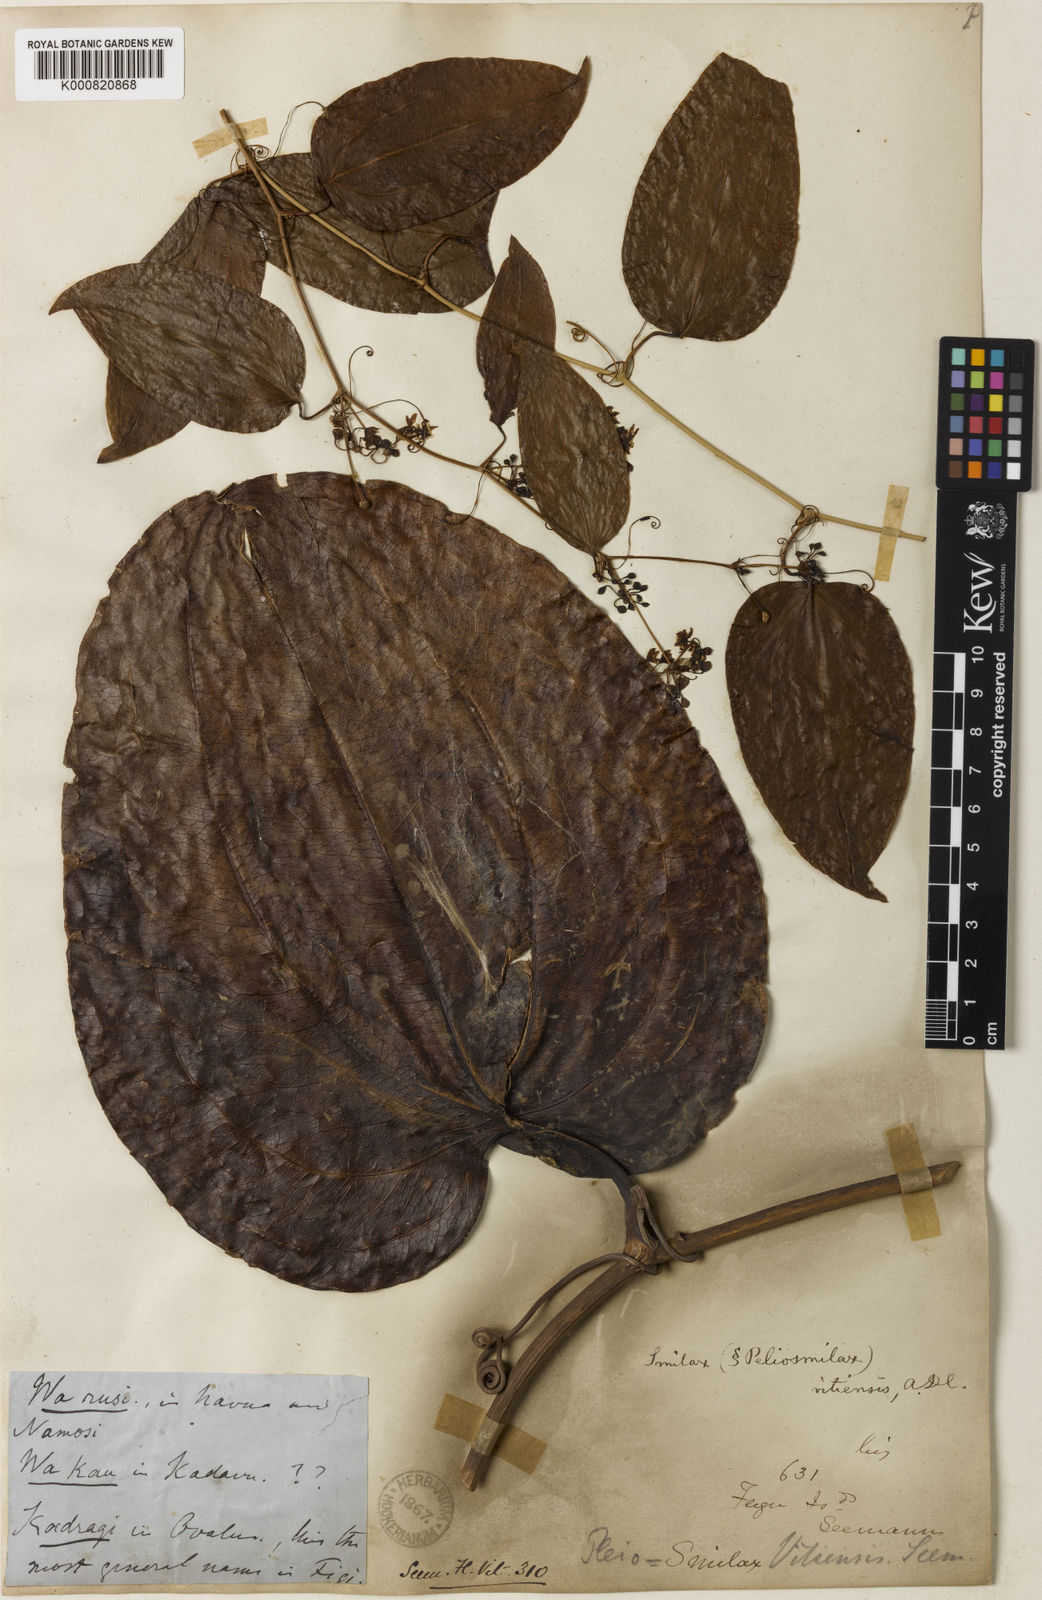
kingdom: Plantae
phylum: Tracheophyta
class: Liliopsida
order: Liliales
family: Smilacaceae
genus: Smilax
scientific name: Smilax vitiensis
